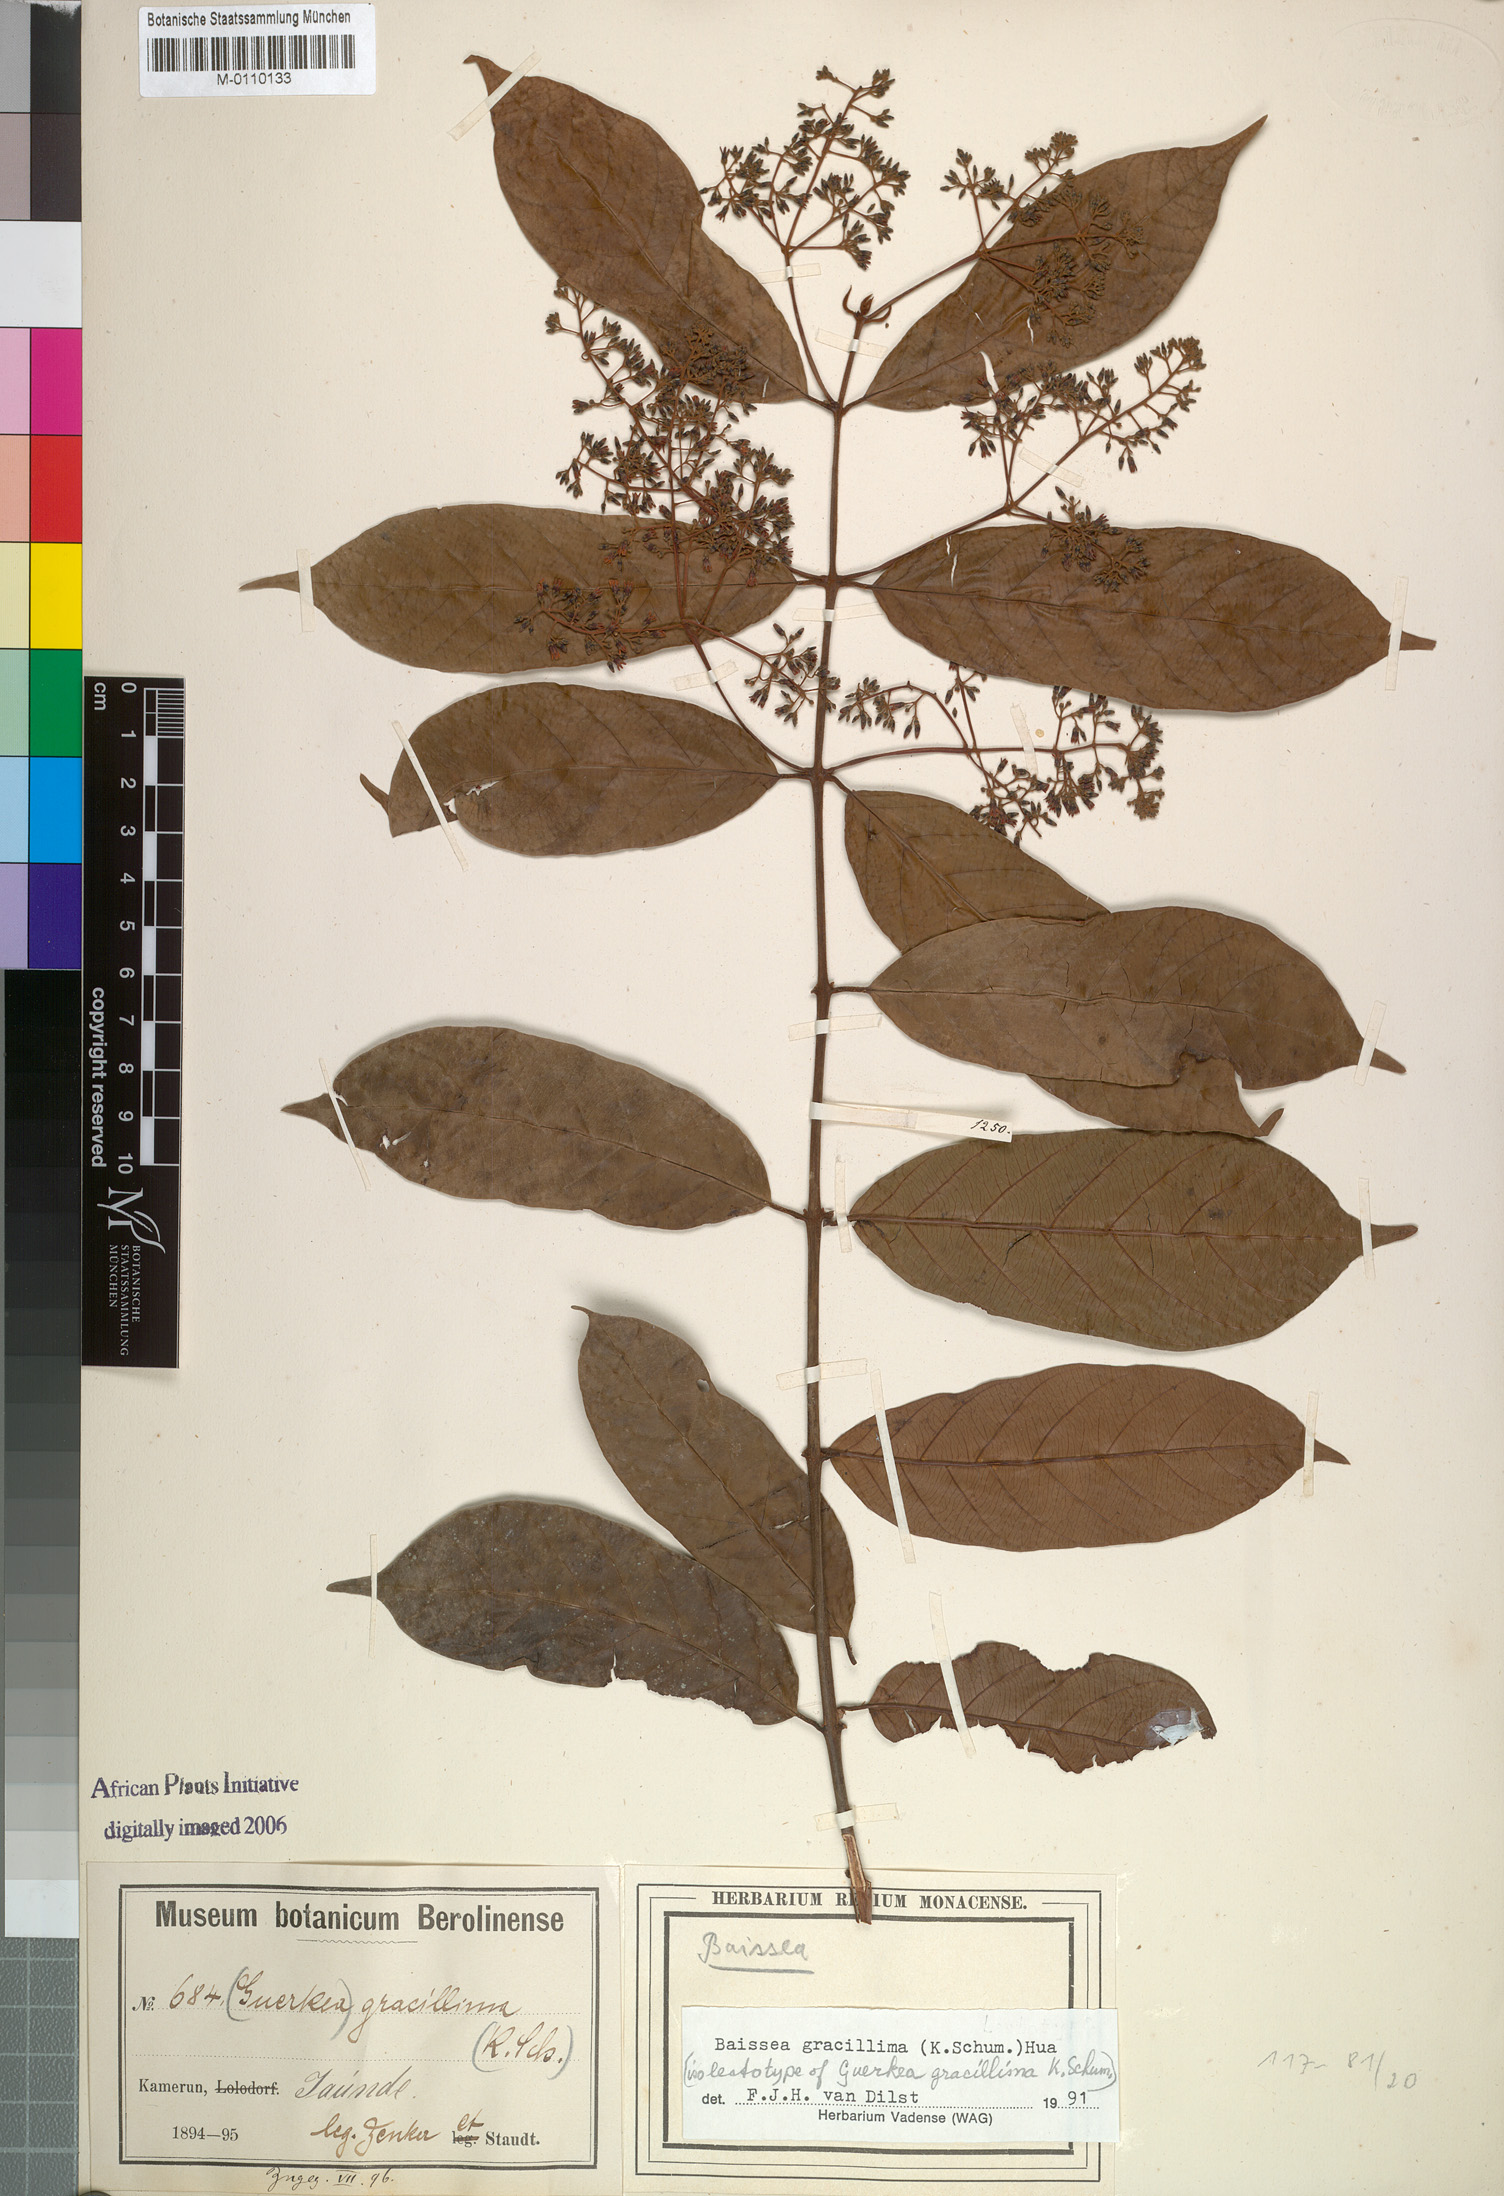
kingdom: Plantae
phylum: Tracheophyta
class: Magnoliopsida
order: Gentianales
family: Apocynaceae
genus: Baissea
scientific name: Baissea gracillima
